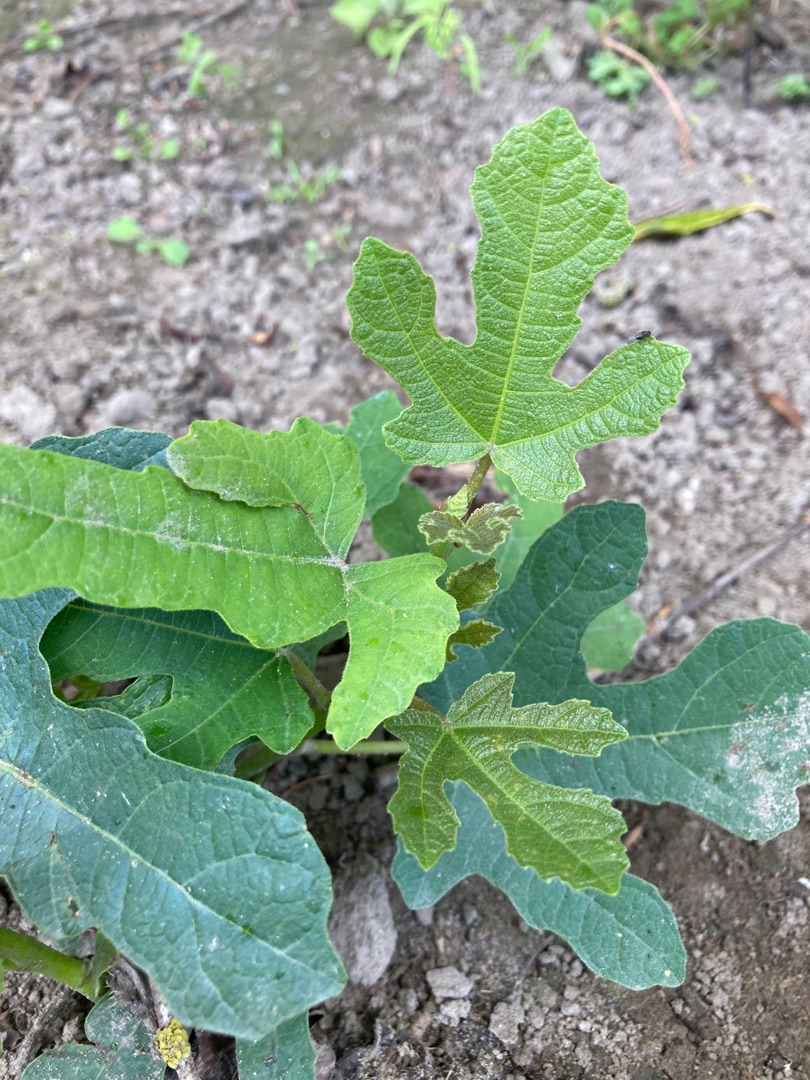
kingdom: Plantae
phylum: Tracheophyta
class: Magnoliopsida
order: Rosales
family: Moraceae
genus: Ficus
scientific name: Ficus carica
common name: Figen
